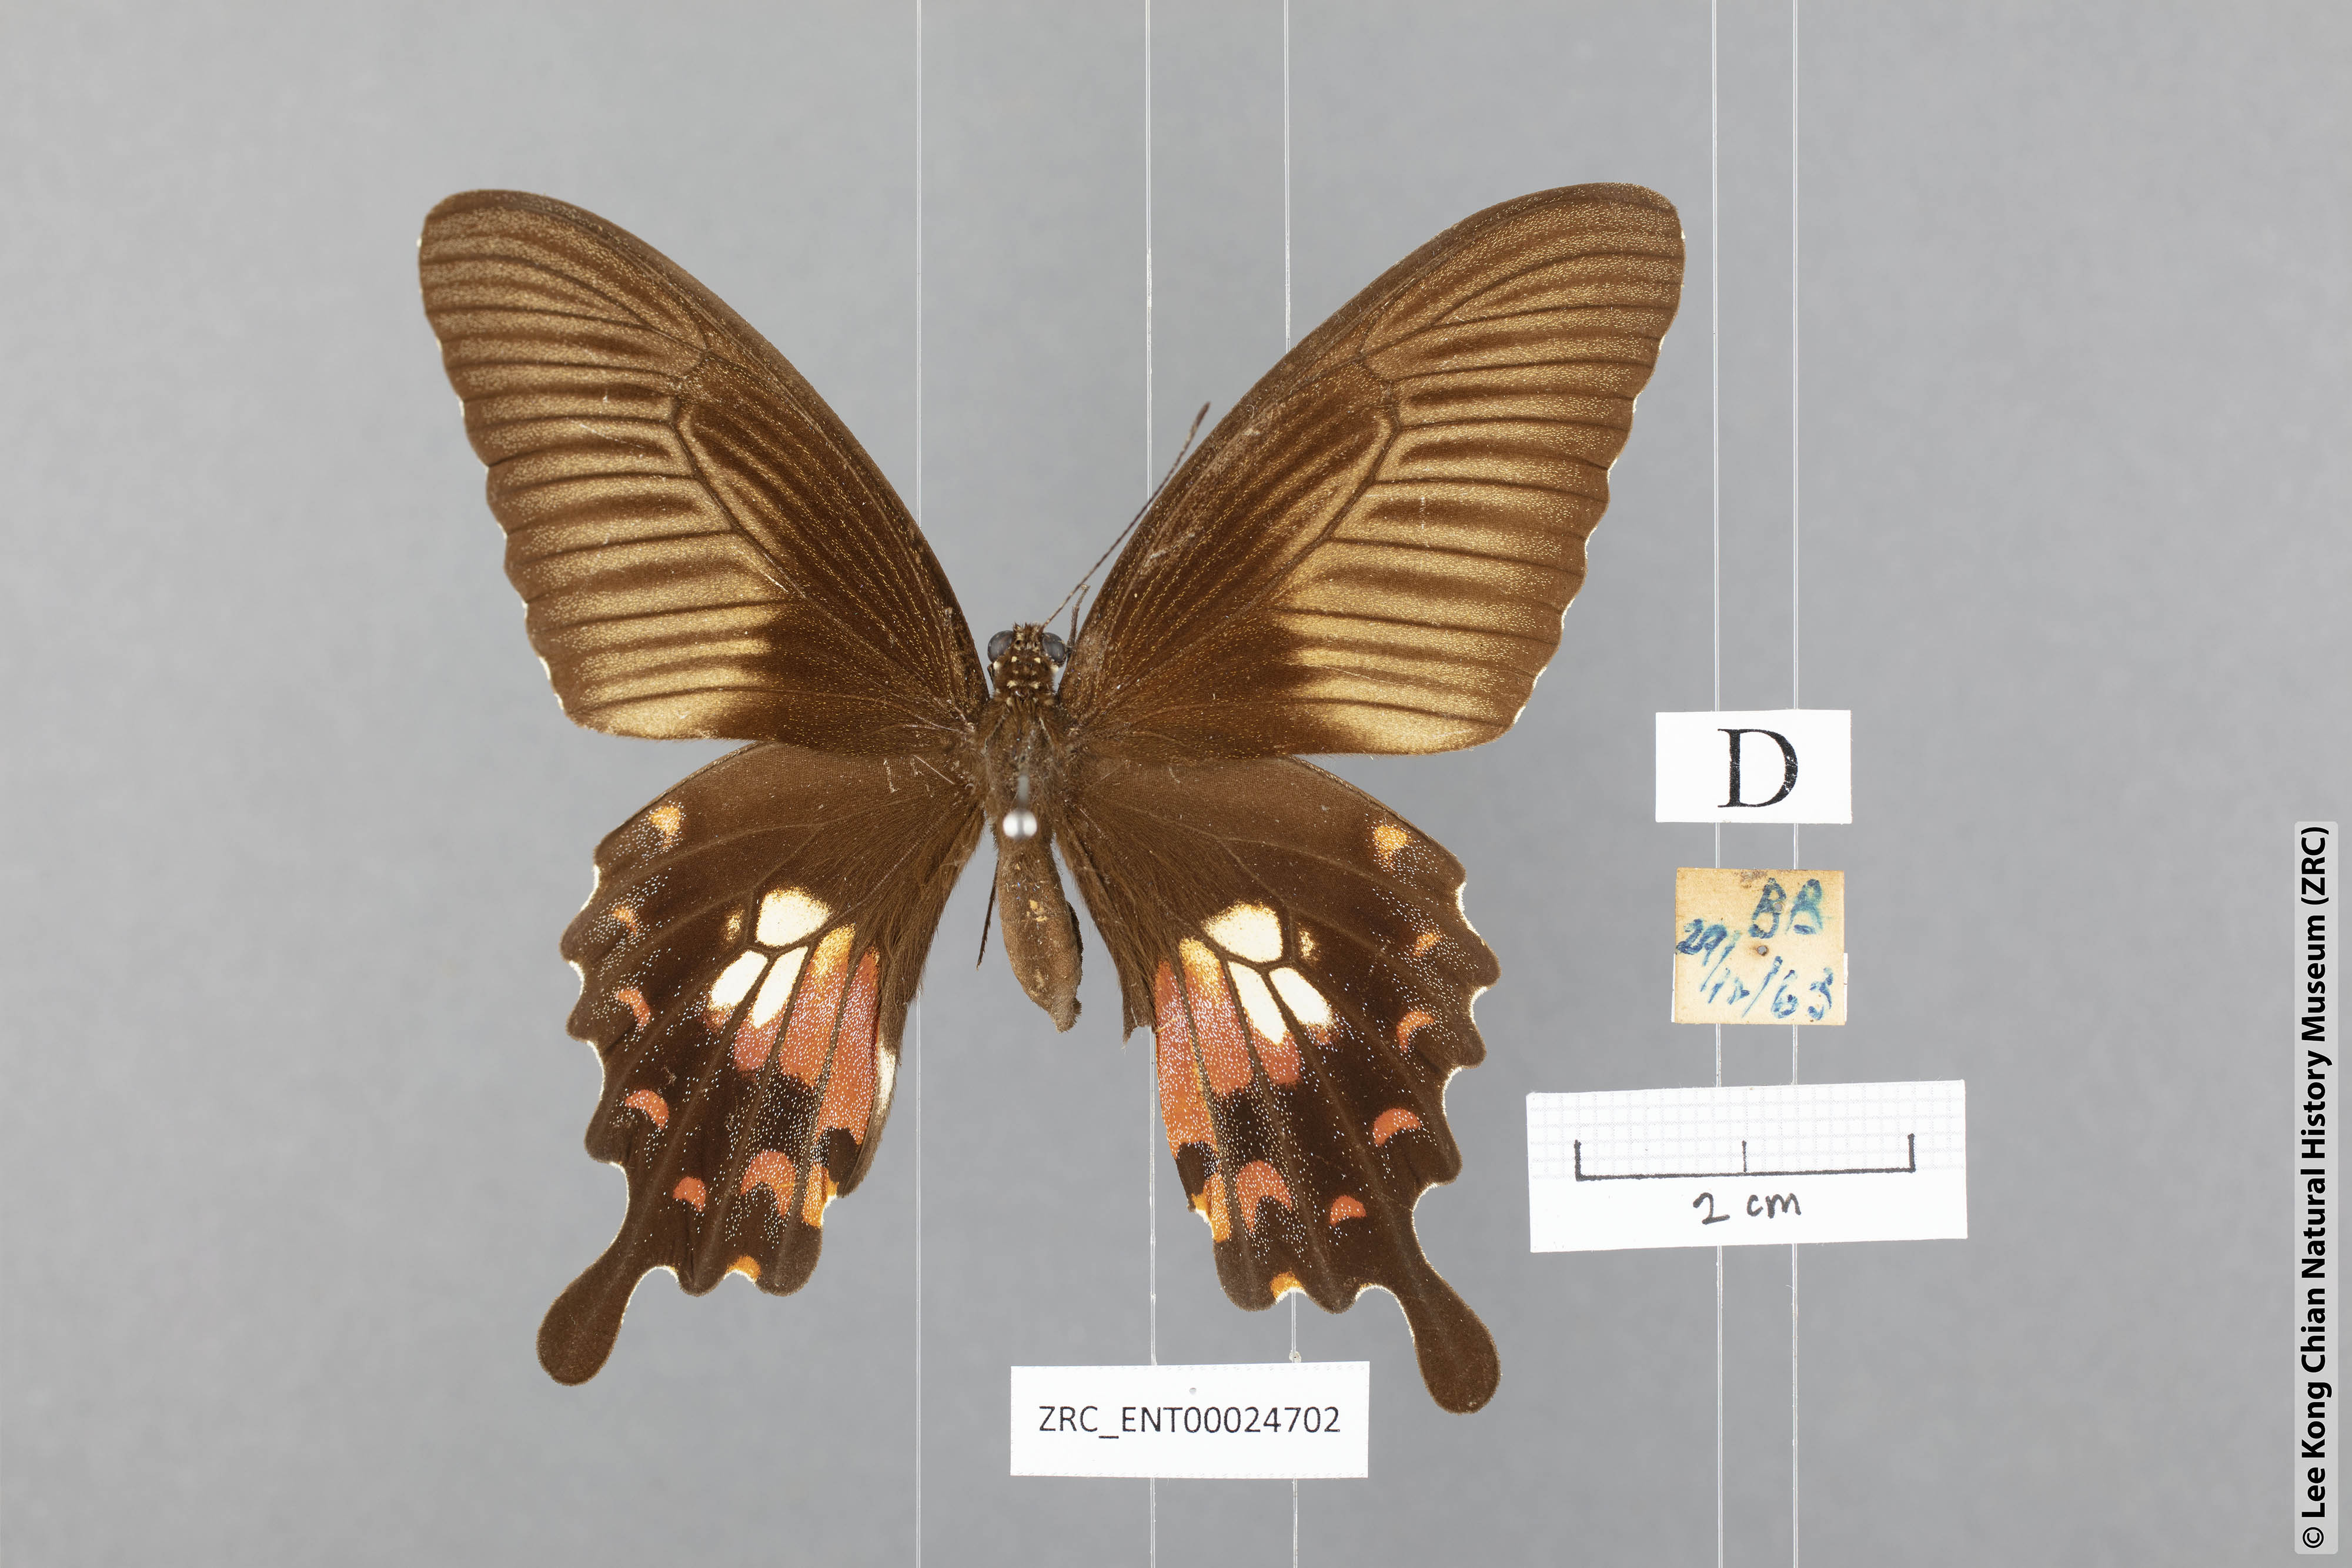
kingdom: Animalia
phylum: Arthropoda
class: Insecta
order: Lepidoptera
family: Papilionidae
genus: Papilio
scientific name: Papilio polytes
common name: Common mormon
